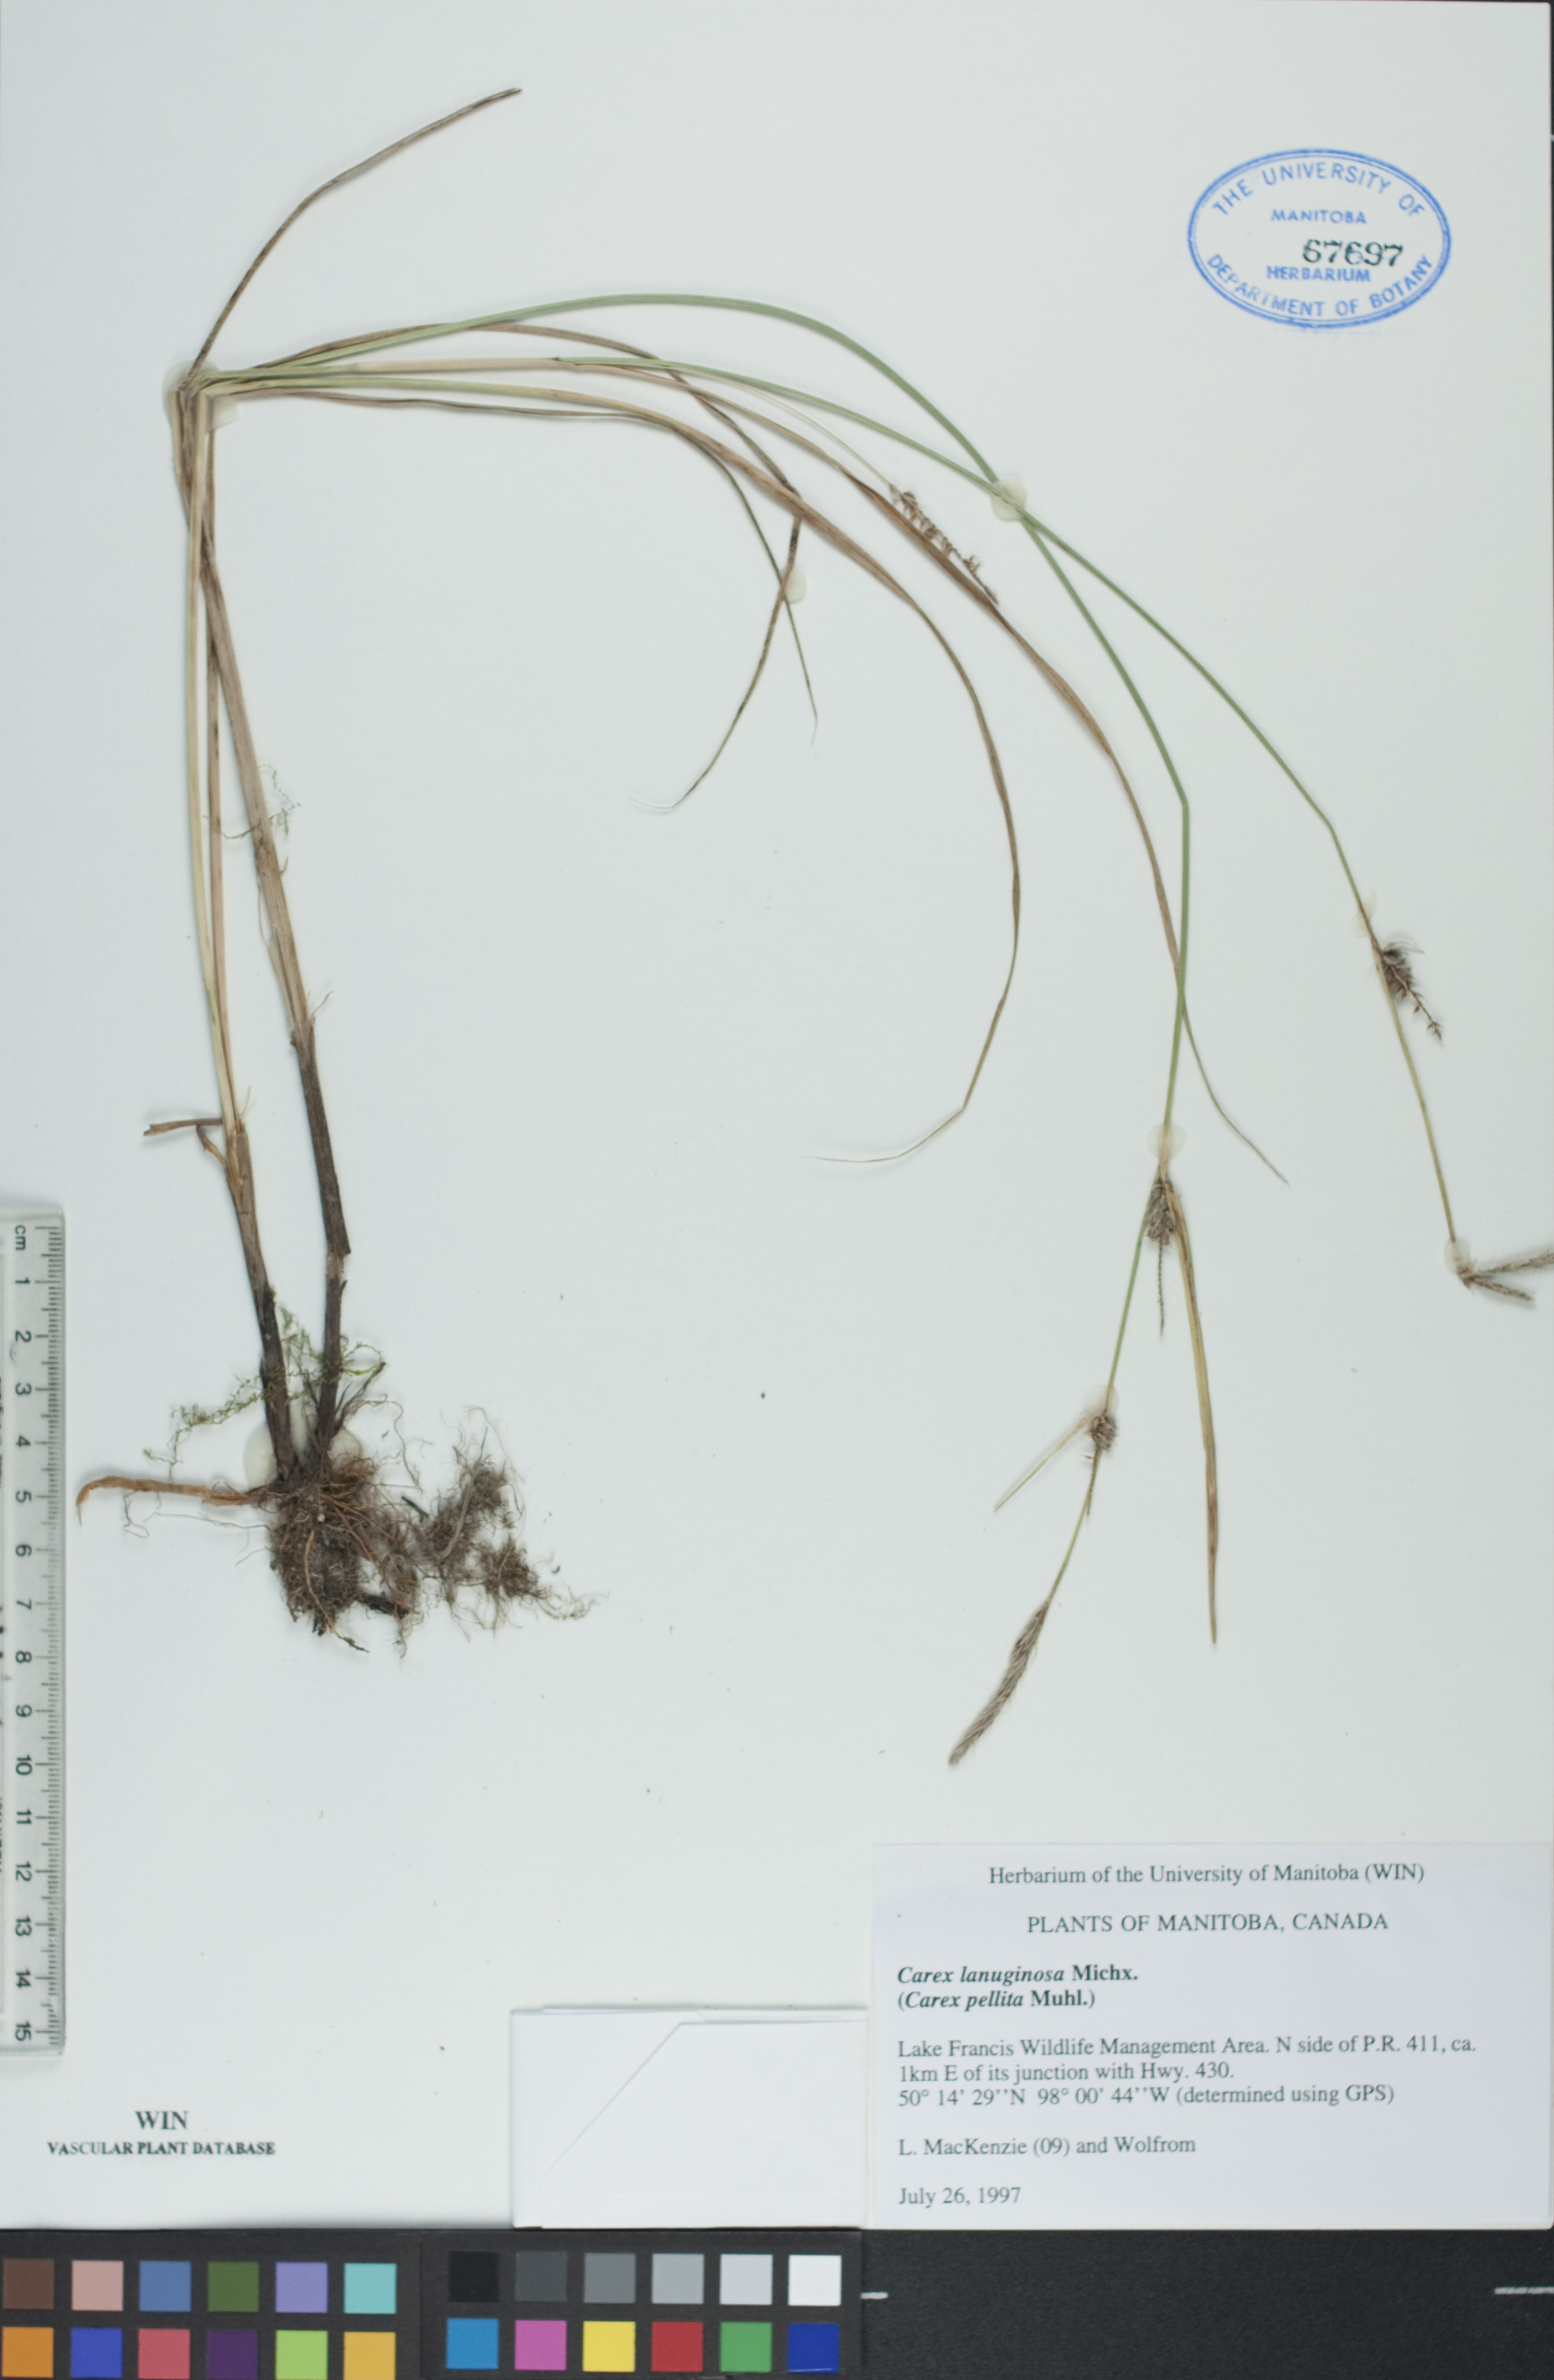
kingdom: Plantae
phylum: Tracheophyta
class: Liliopsida
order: Poales
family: Cyperaceae
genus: Carex
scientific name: Carex lasiocarpa
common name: Slender sedge
